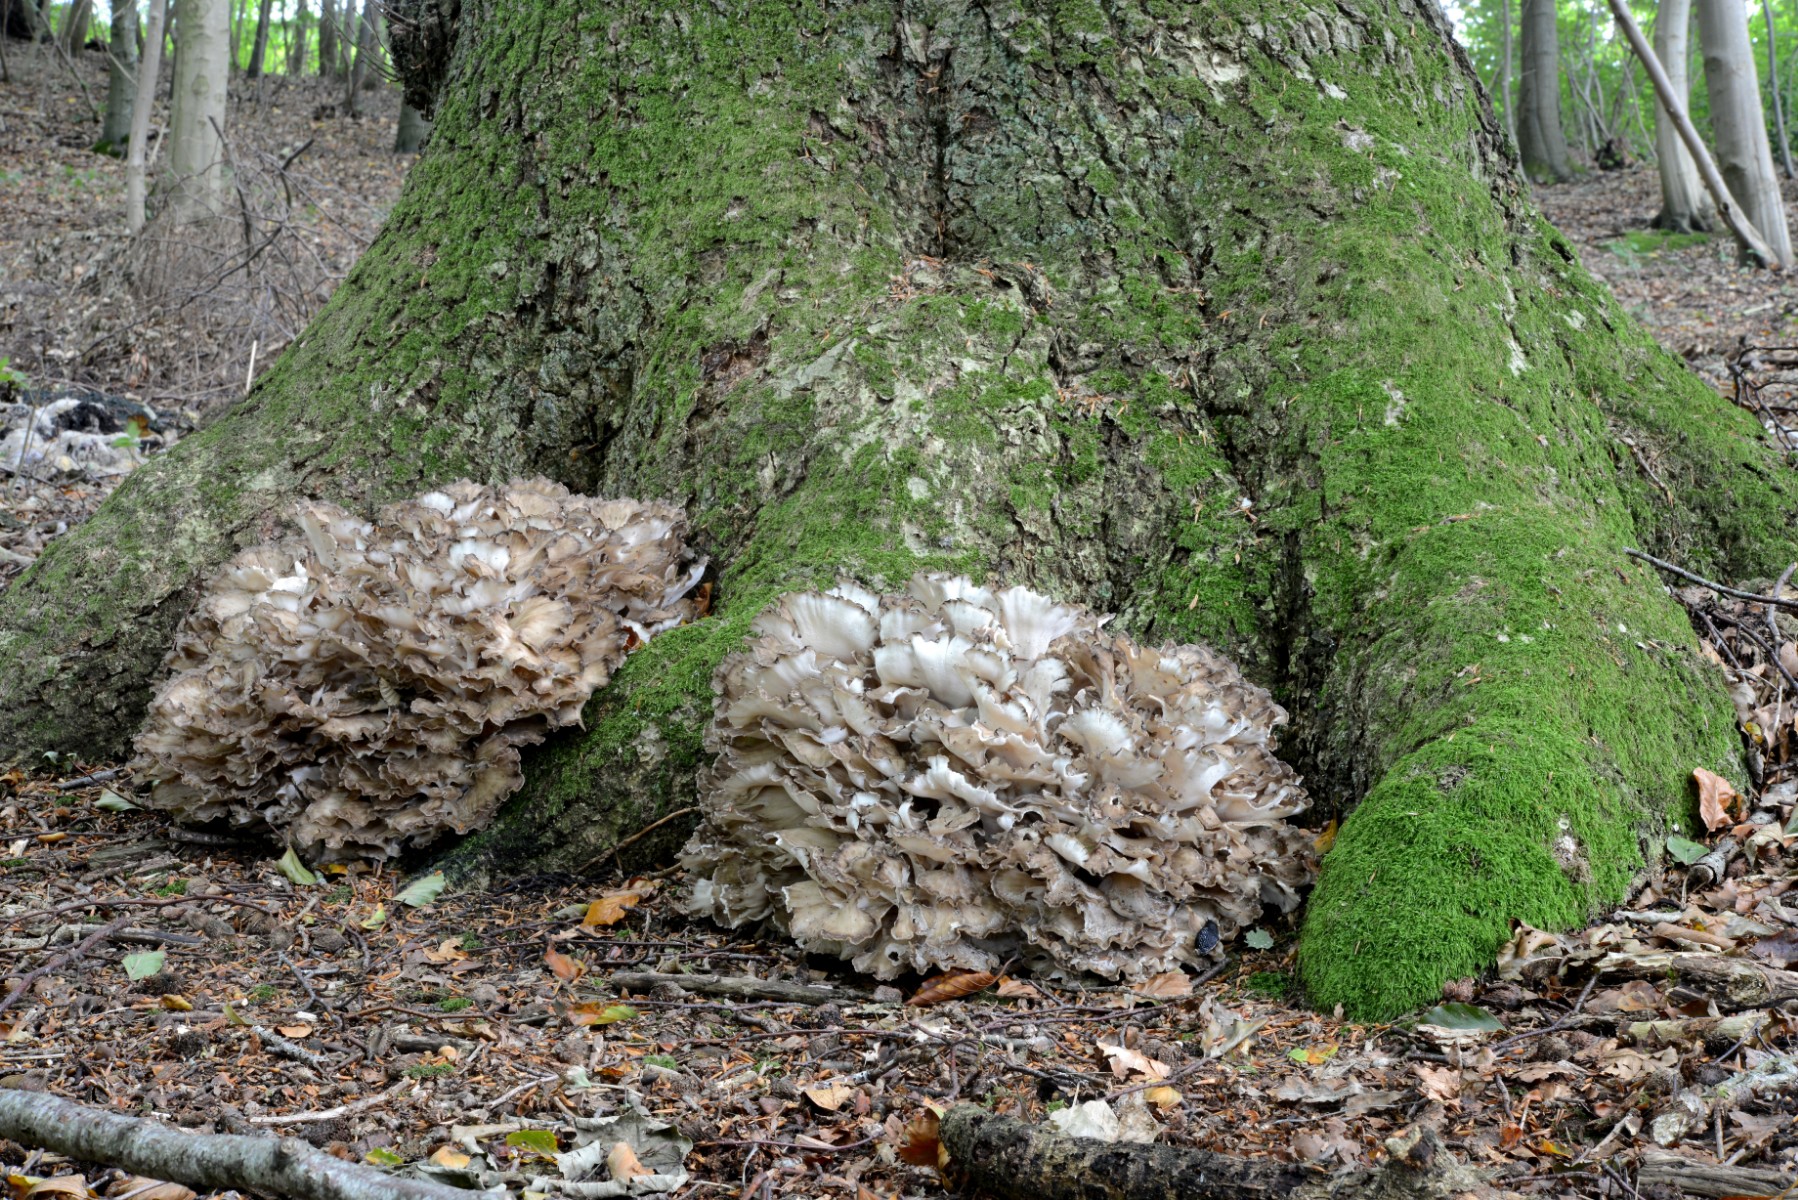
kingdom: Fungi
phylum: Basidiomycota
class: Agaricomycetes
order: Polyporales
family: Grifolaceae
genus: Grifola
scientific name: Grifola frondosa
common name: tueporesvamp
